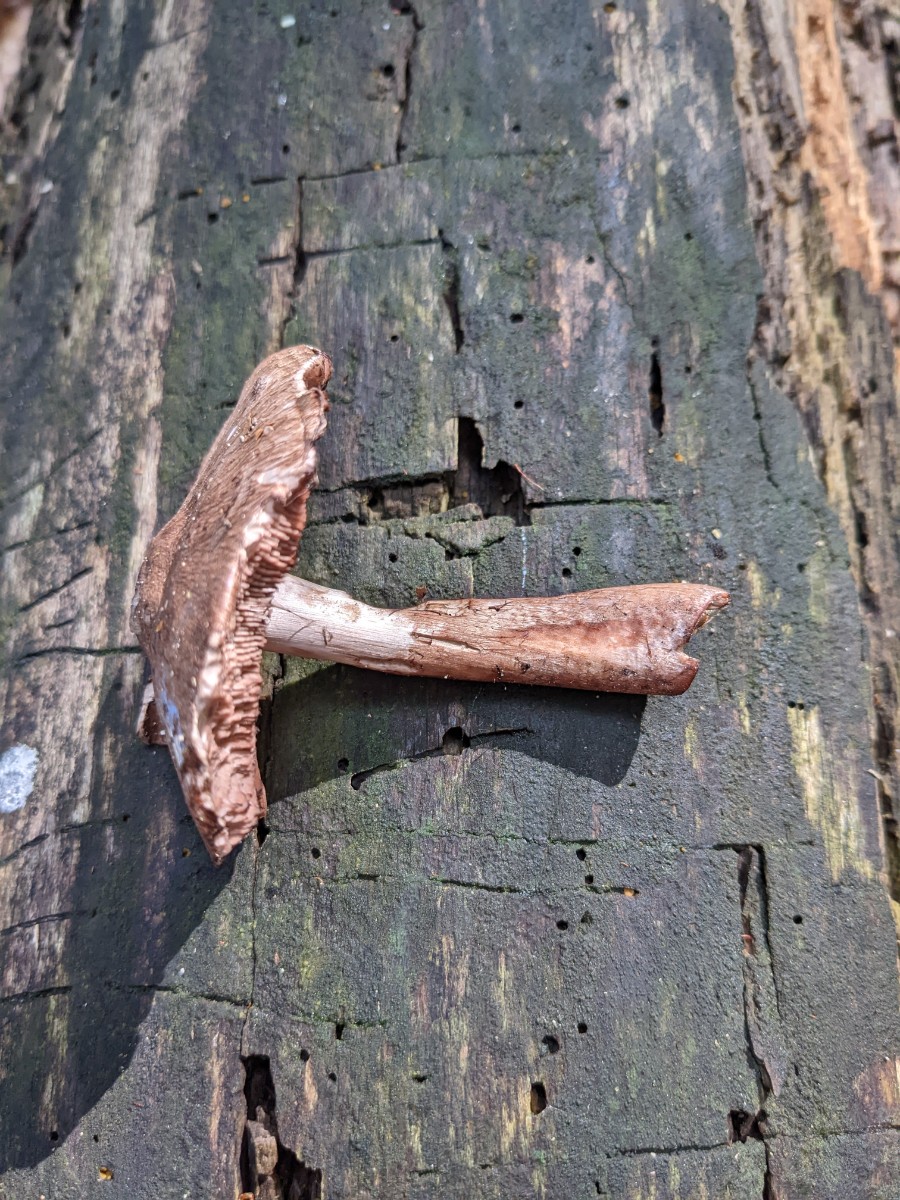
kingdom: Fungi
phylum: Basidiomycota
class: Agaricomycetes
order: Agaricales
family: Agaricaceae
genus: Agaricus
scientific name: Agaricus langei
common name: stor blod-champignon
